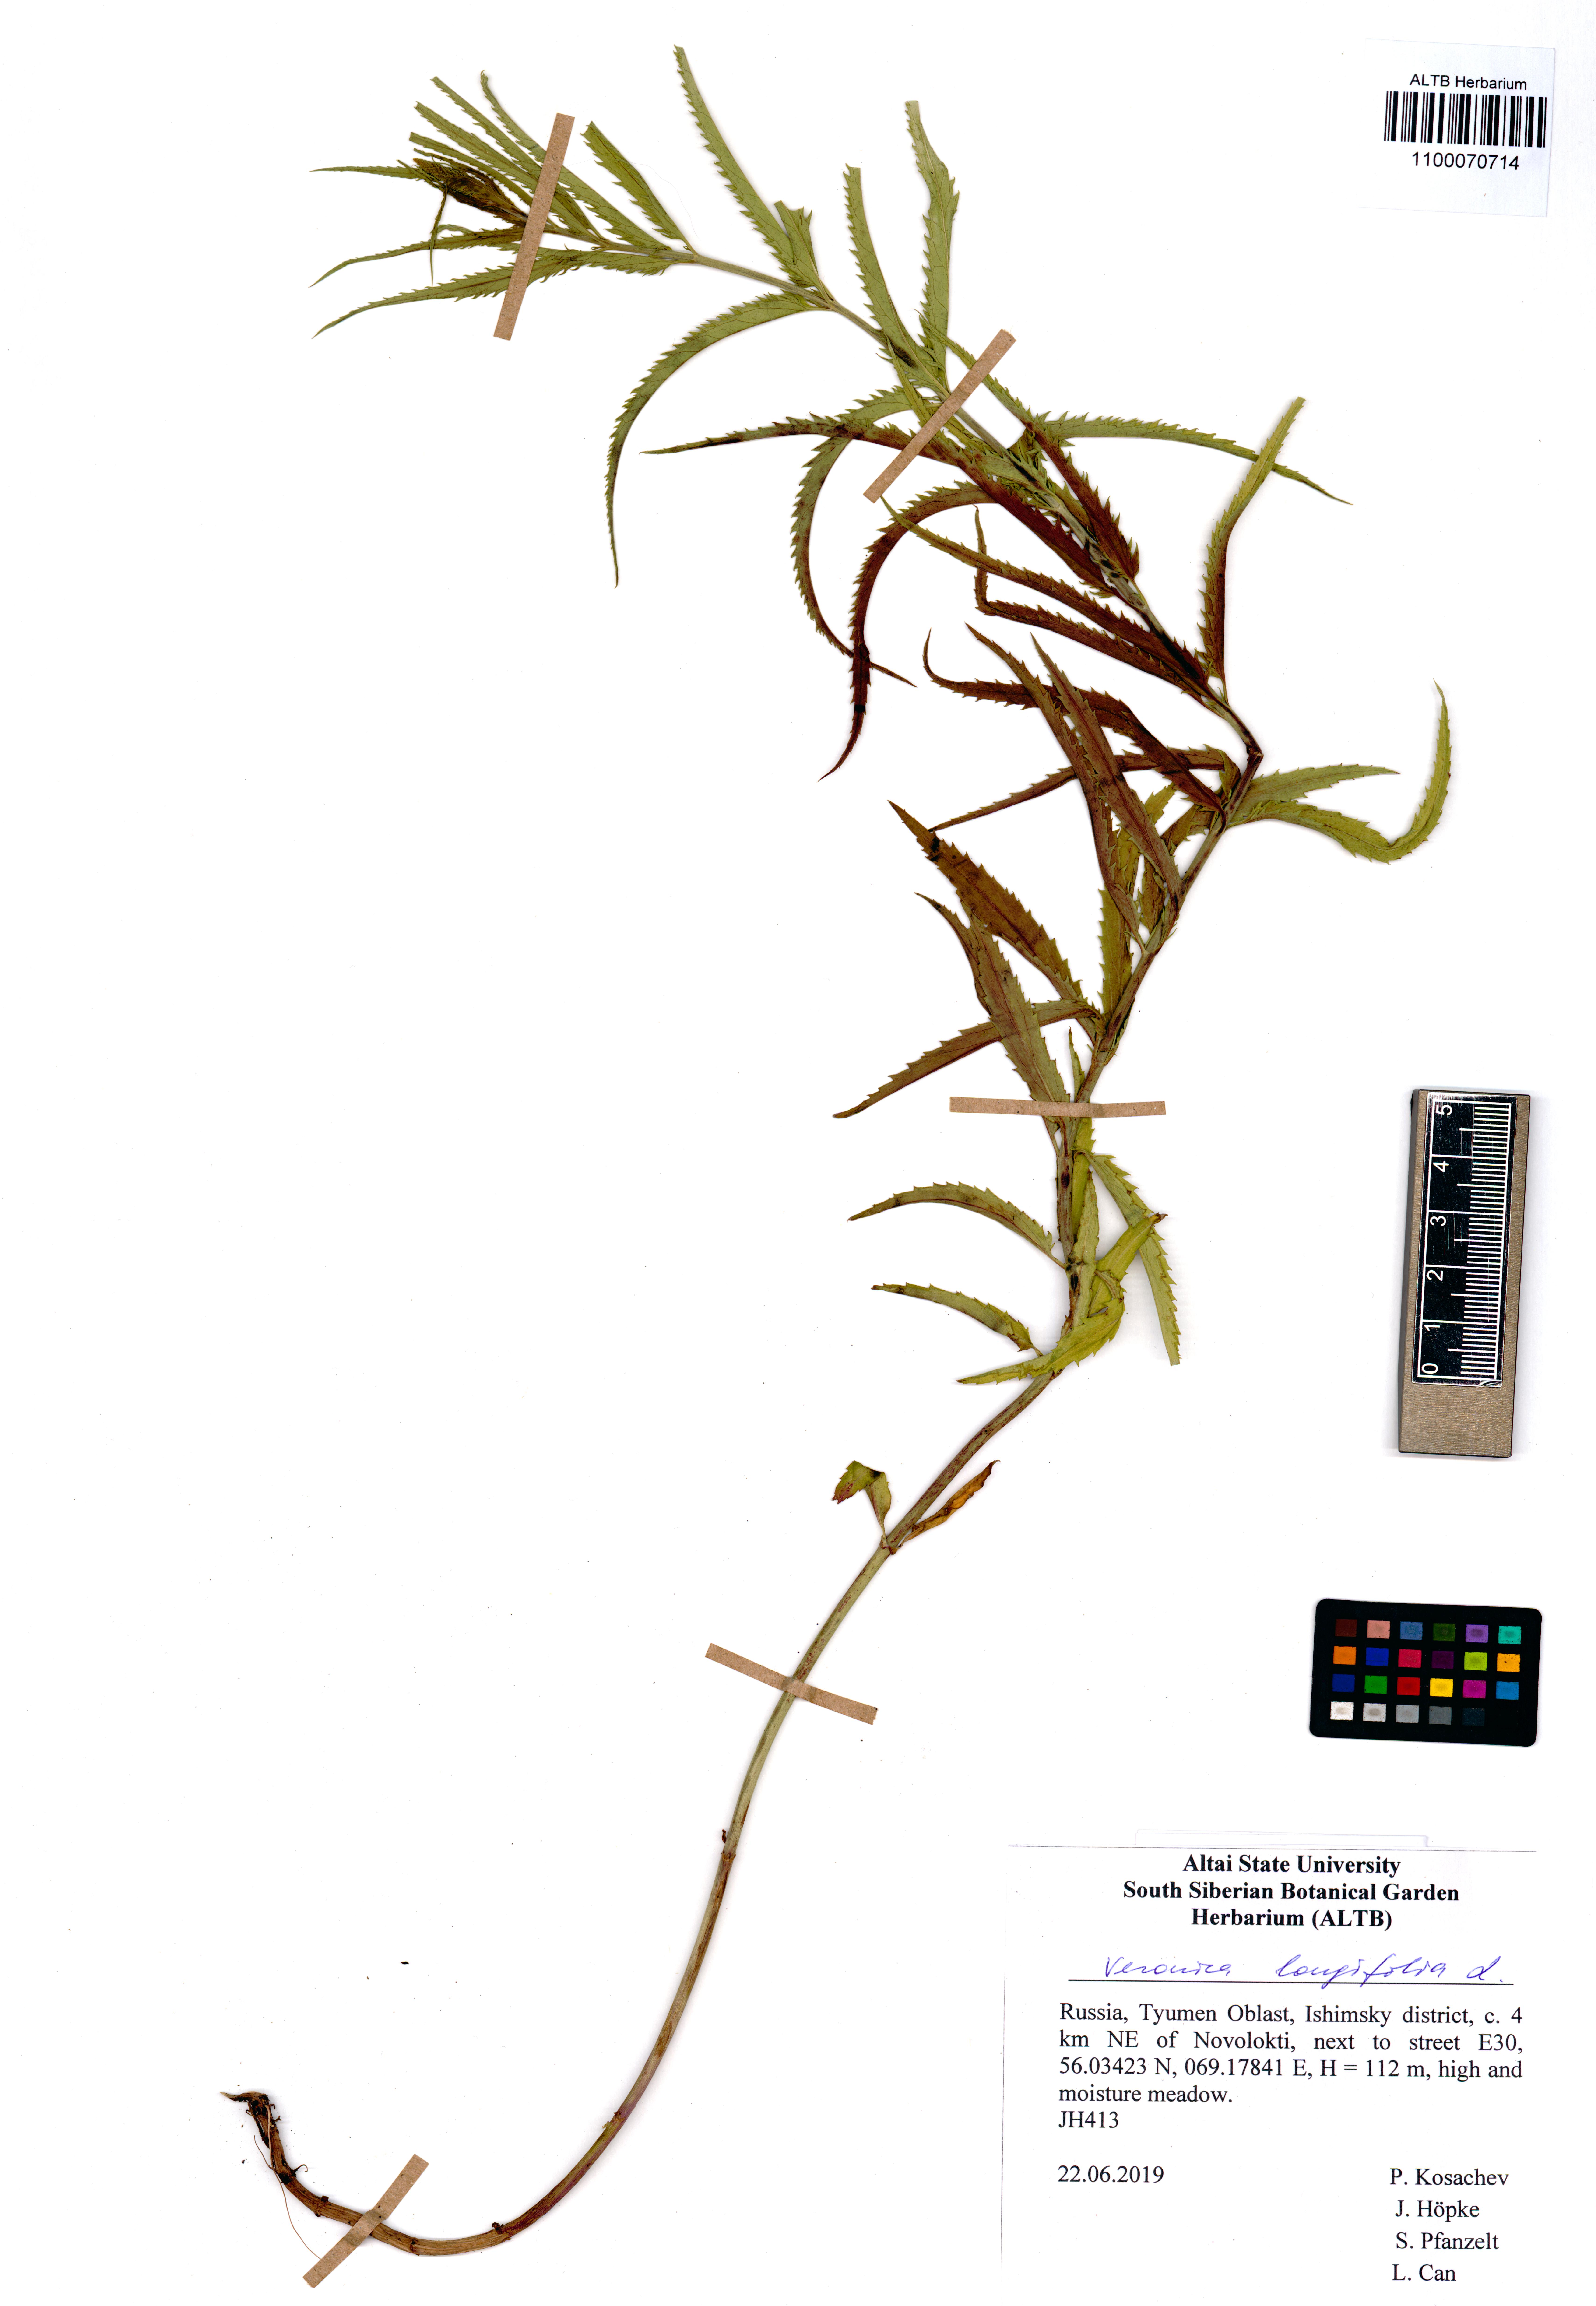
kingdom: Plantae
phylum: Tracheophyta
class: Magnoliopsida
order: Lamiales
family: Plantaginaceae
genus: Veronica
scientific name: Veronica longifolia
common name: Garden speedwell
